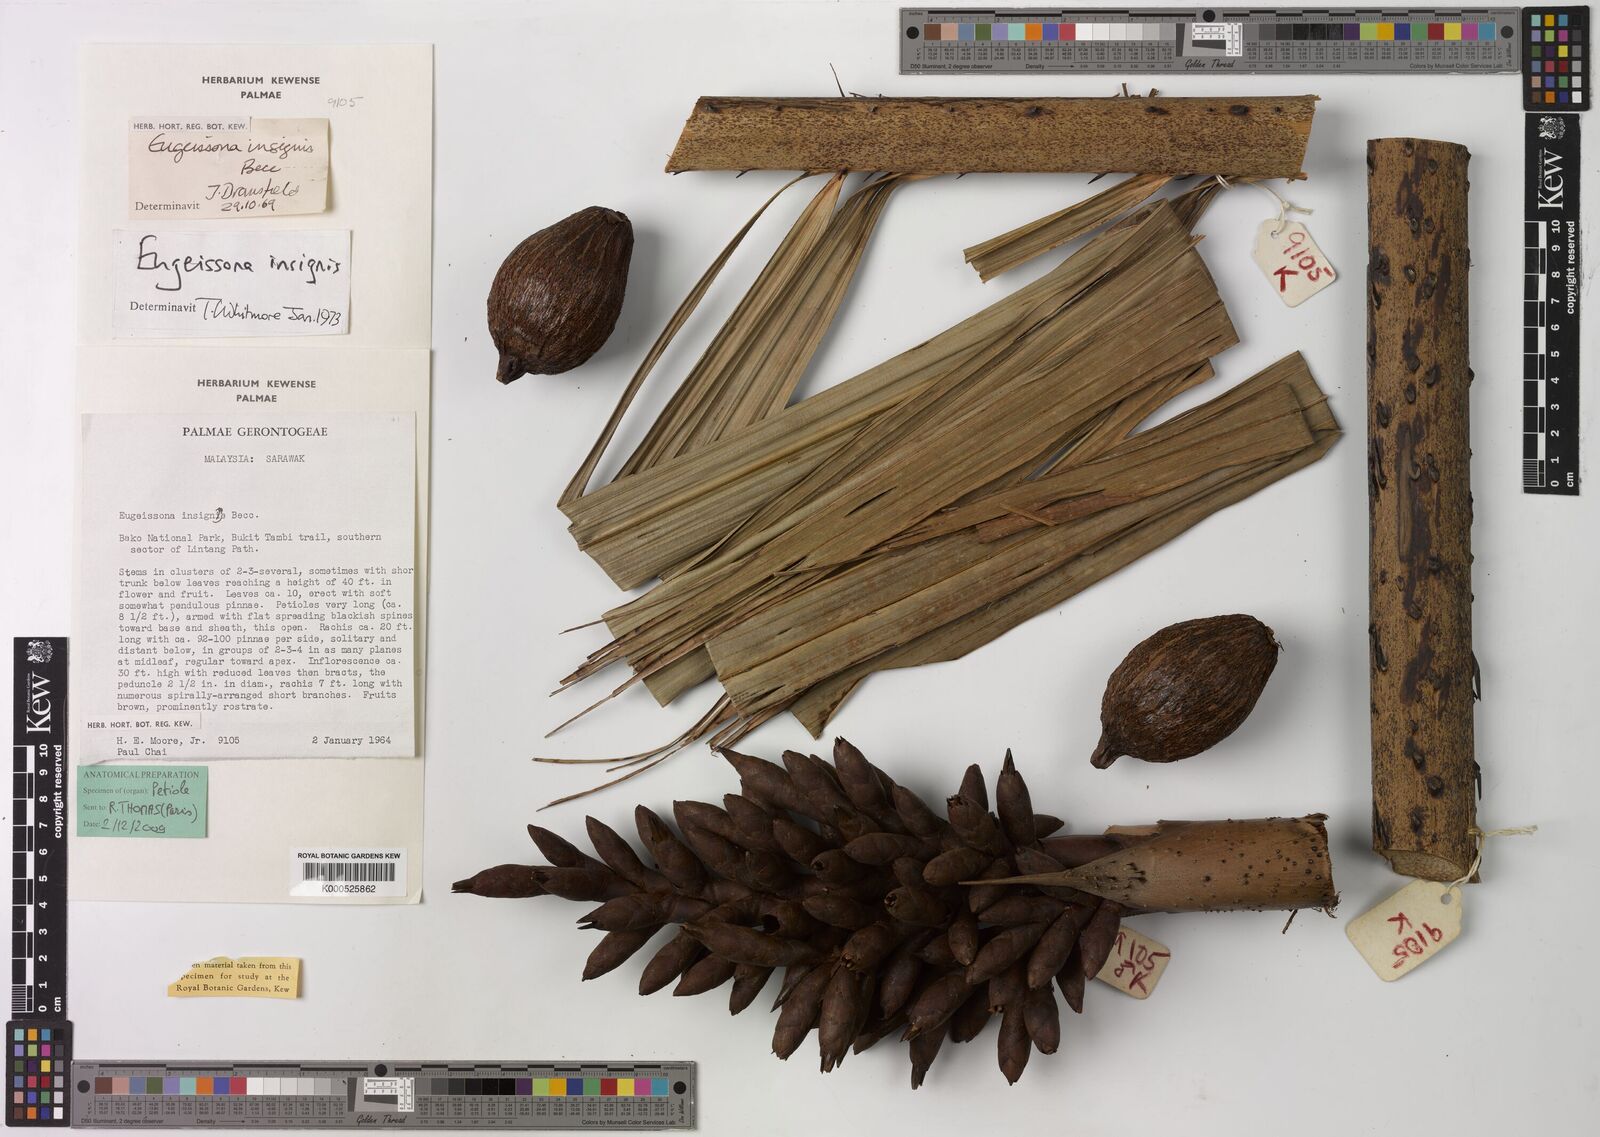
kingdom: Plantae
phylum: Tracheophyta
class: Liliopsida
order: Arecales
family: Arecaceae
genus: Eugeissona
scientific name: Eugeissona insignis
